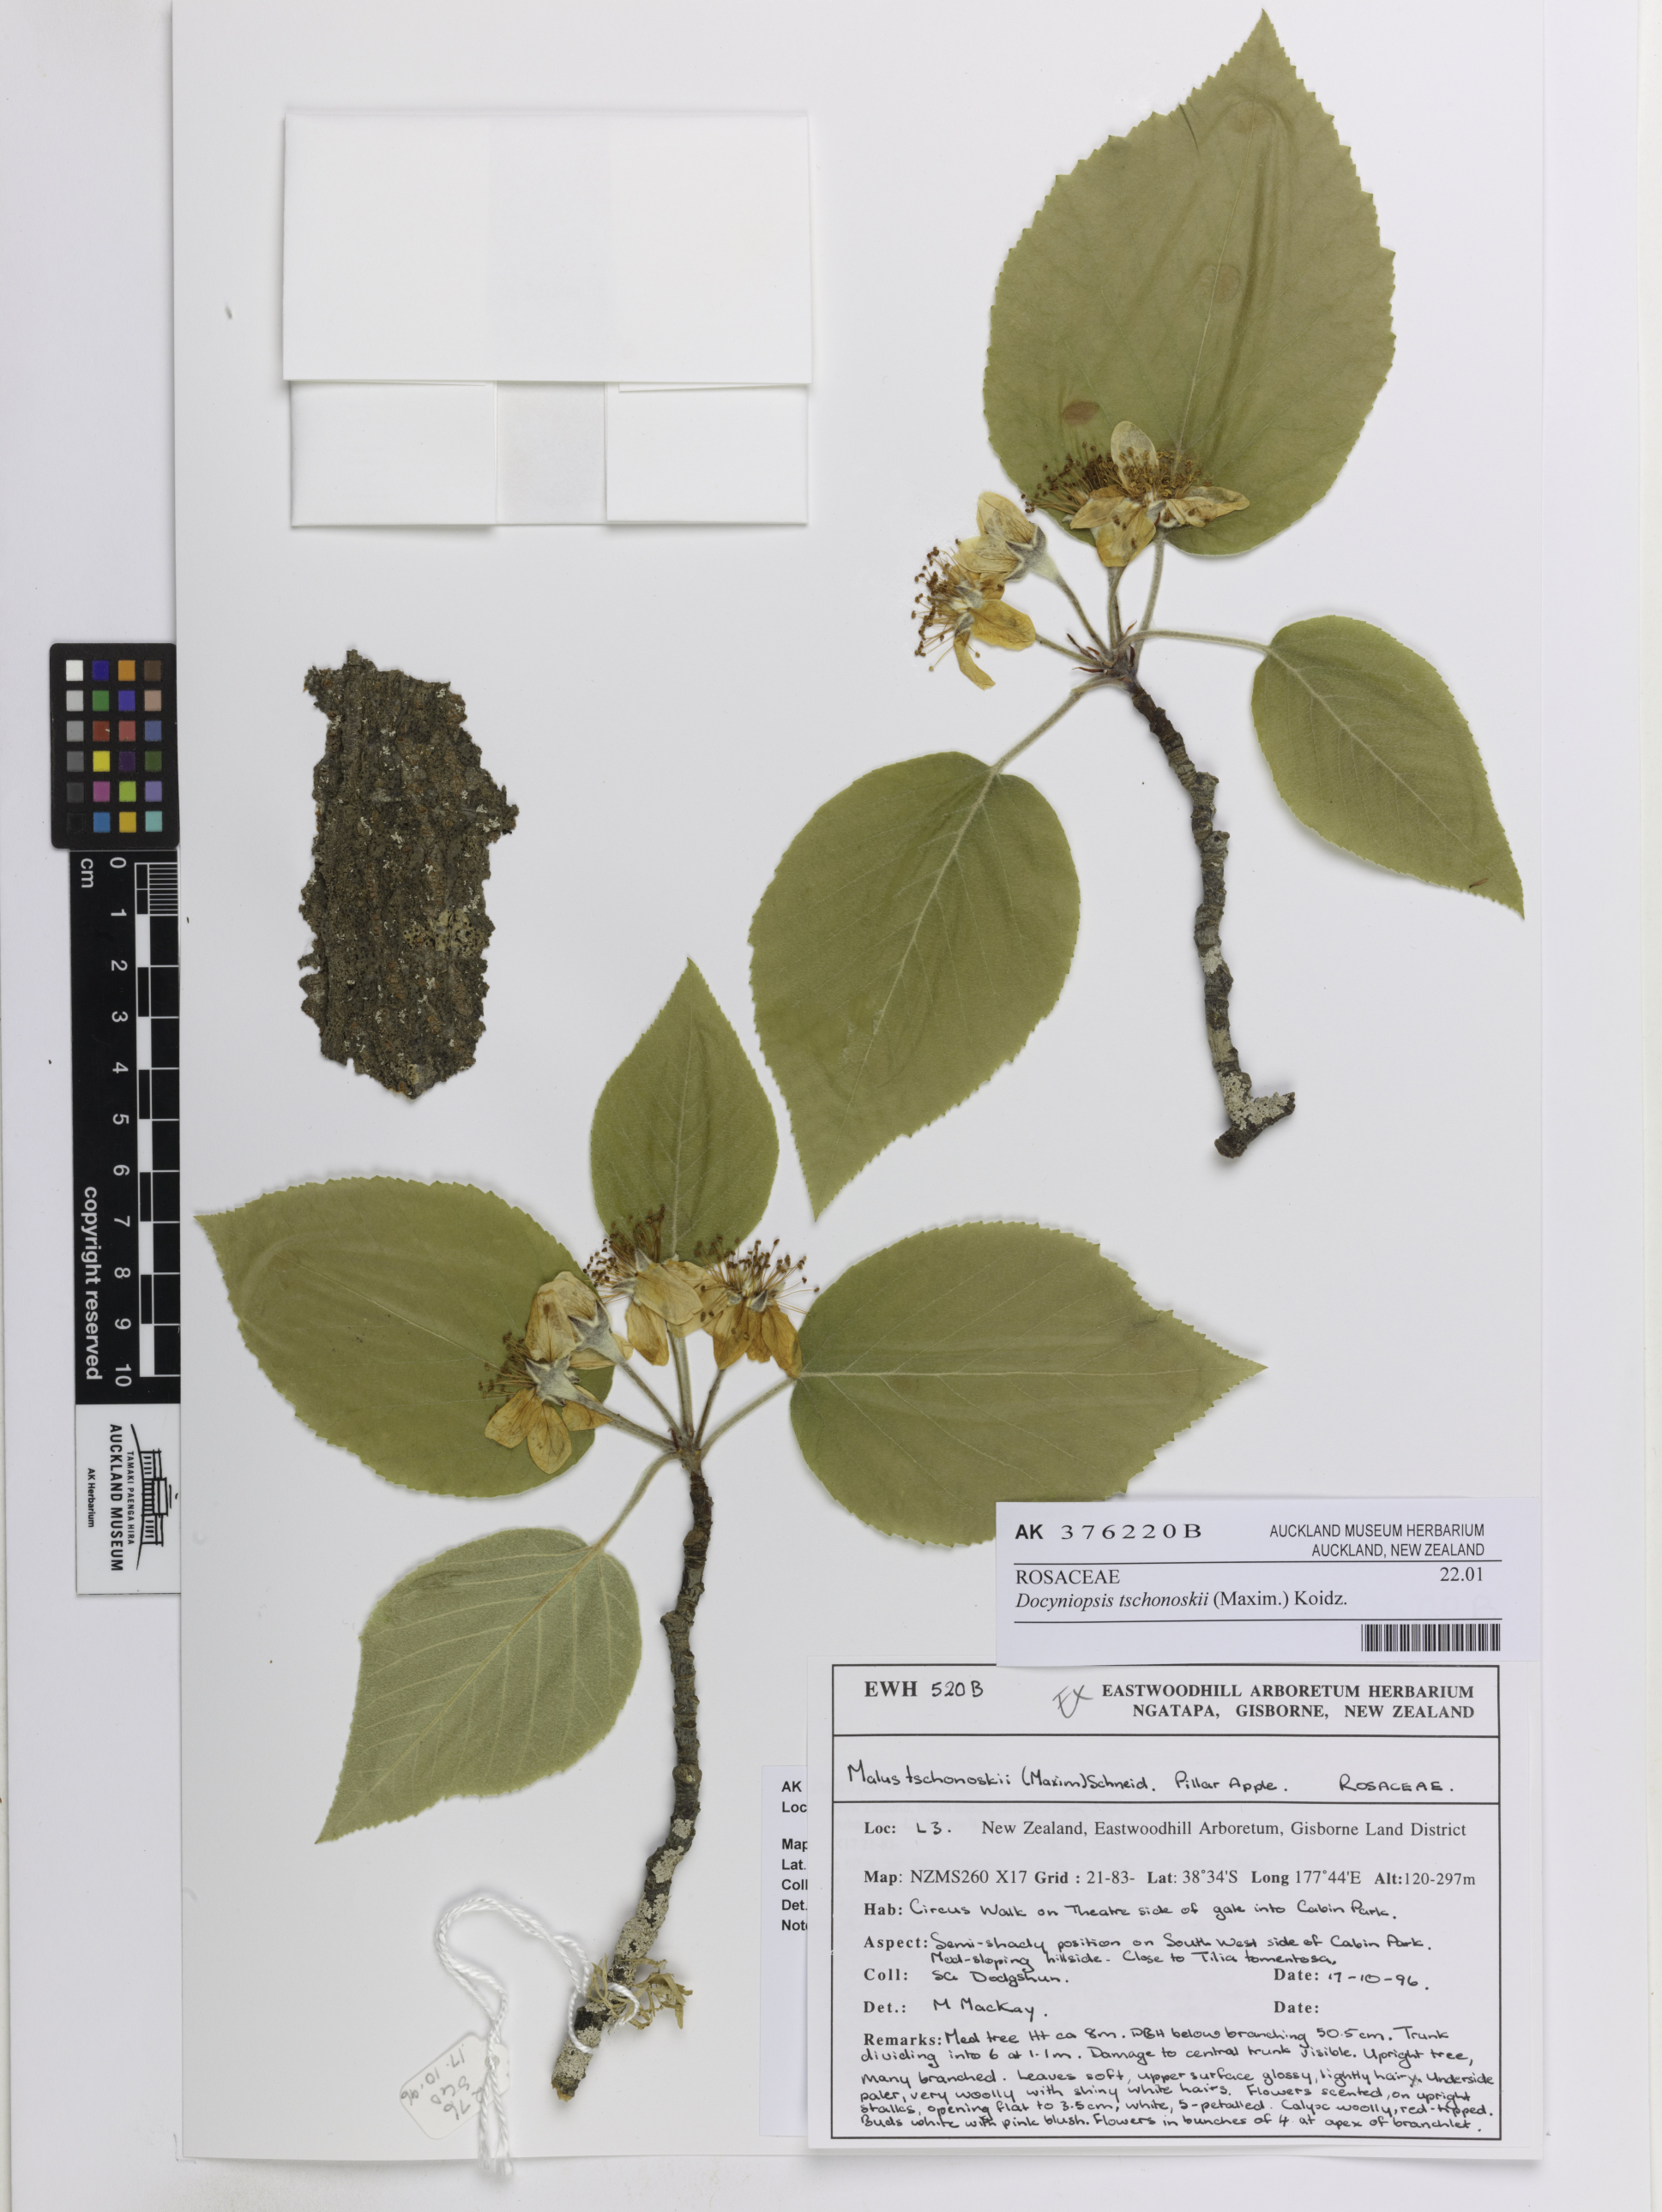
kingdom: Plantae
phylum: Tracheophyta
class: Magnoliopsida
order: Rosales
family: Rosaceae
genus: Malus
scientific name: Malus tschonoskii
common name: Pillar apple
